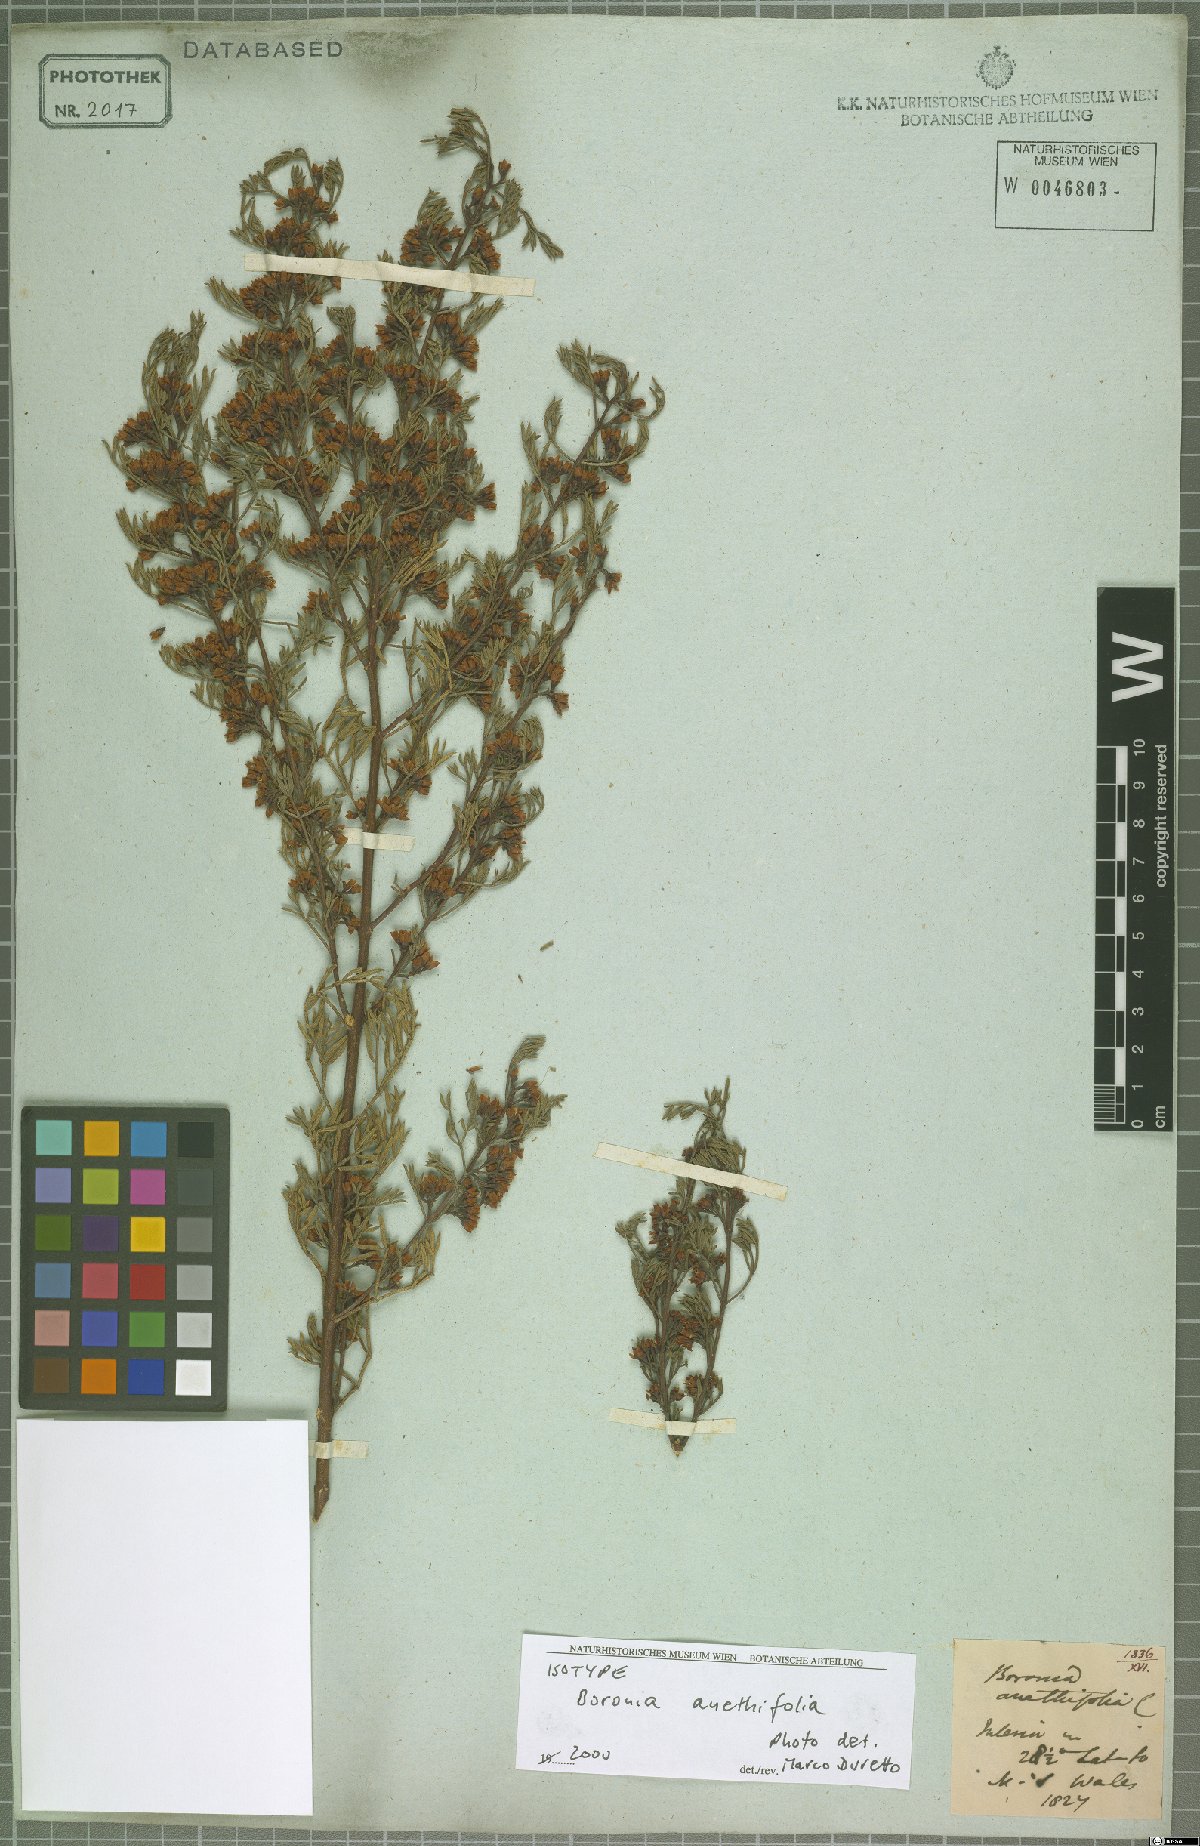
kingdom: Plantae
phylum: Tracheophyta
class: Magnoliopsida
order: Sapindales
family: Rutaceae
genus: Cyanothamnus
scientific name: Cyanothamnus quadrangulus
